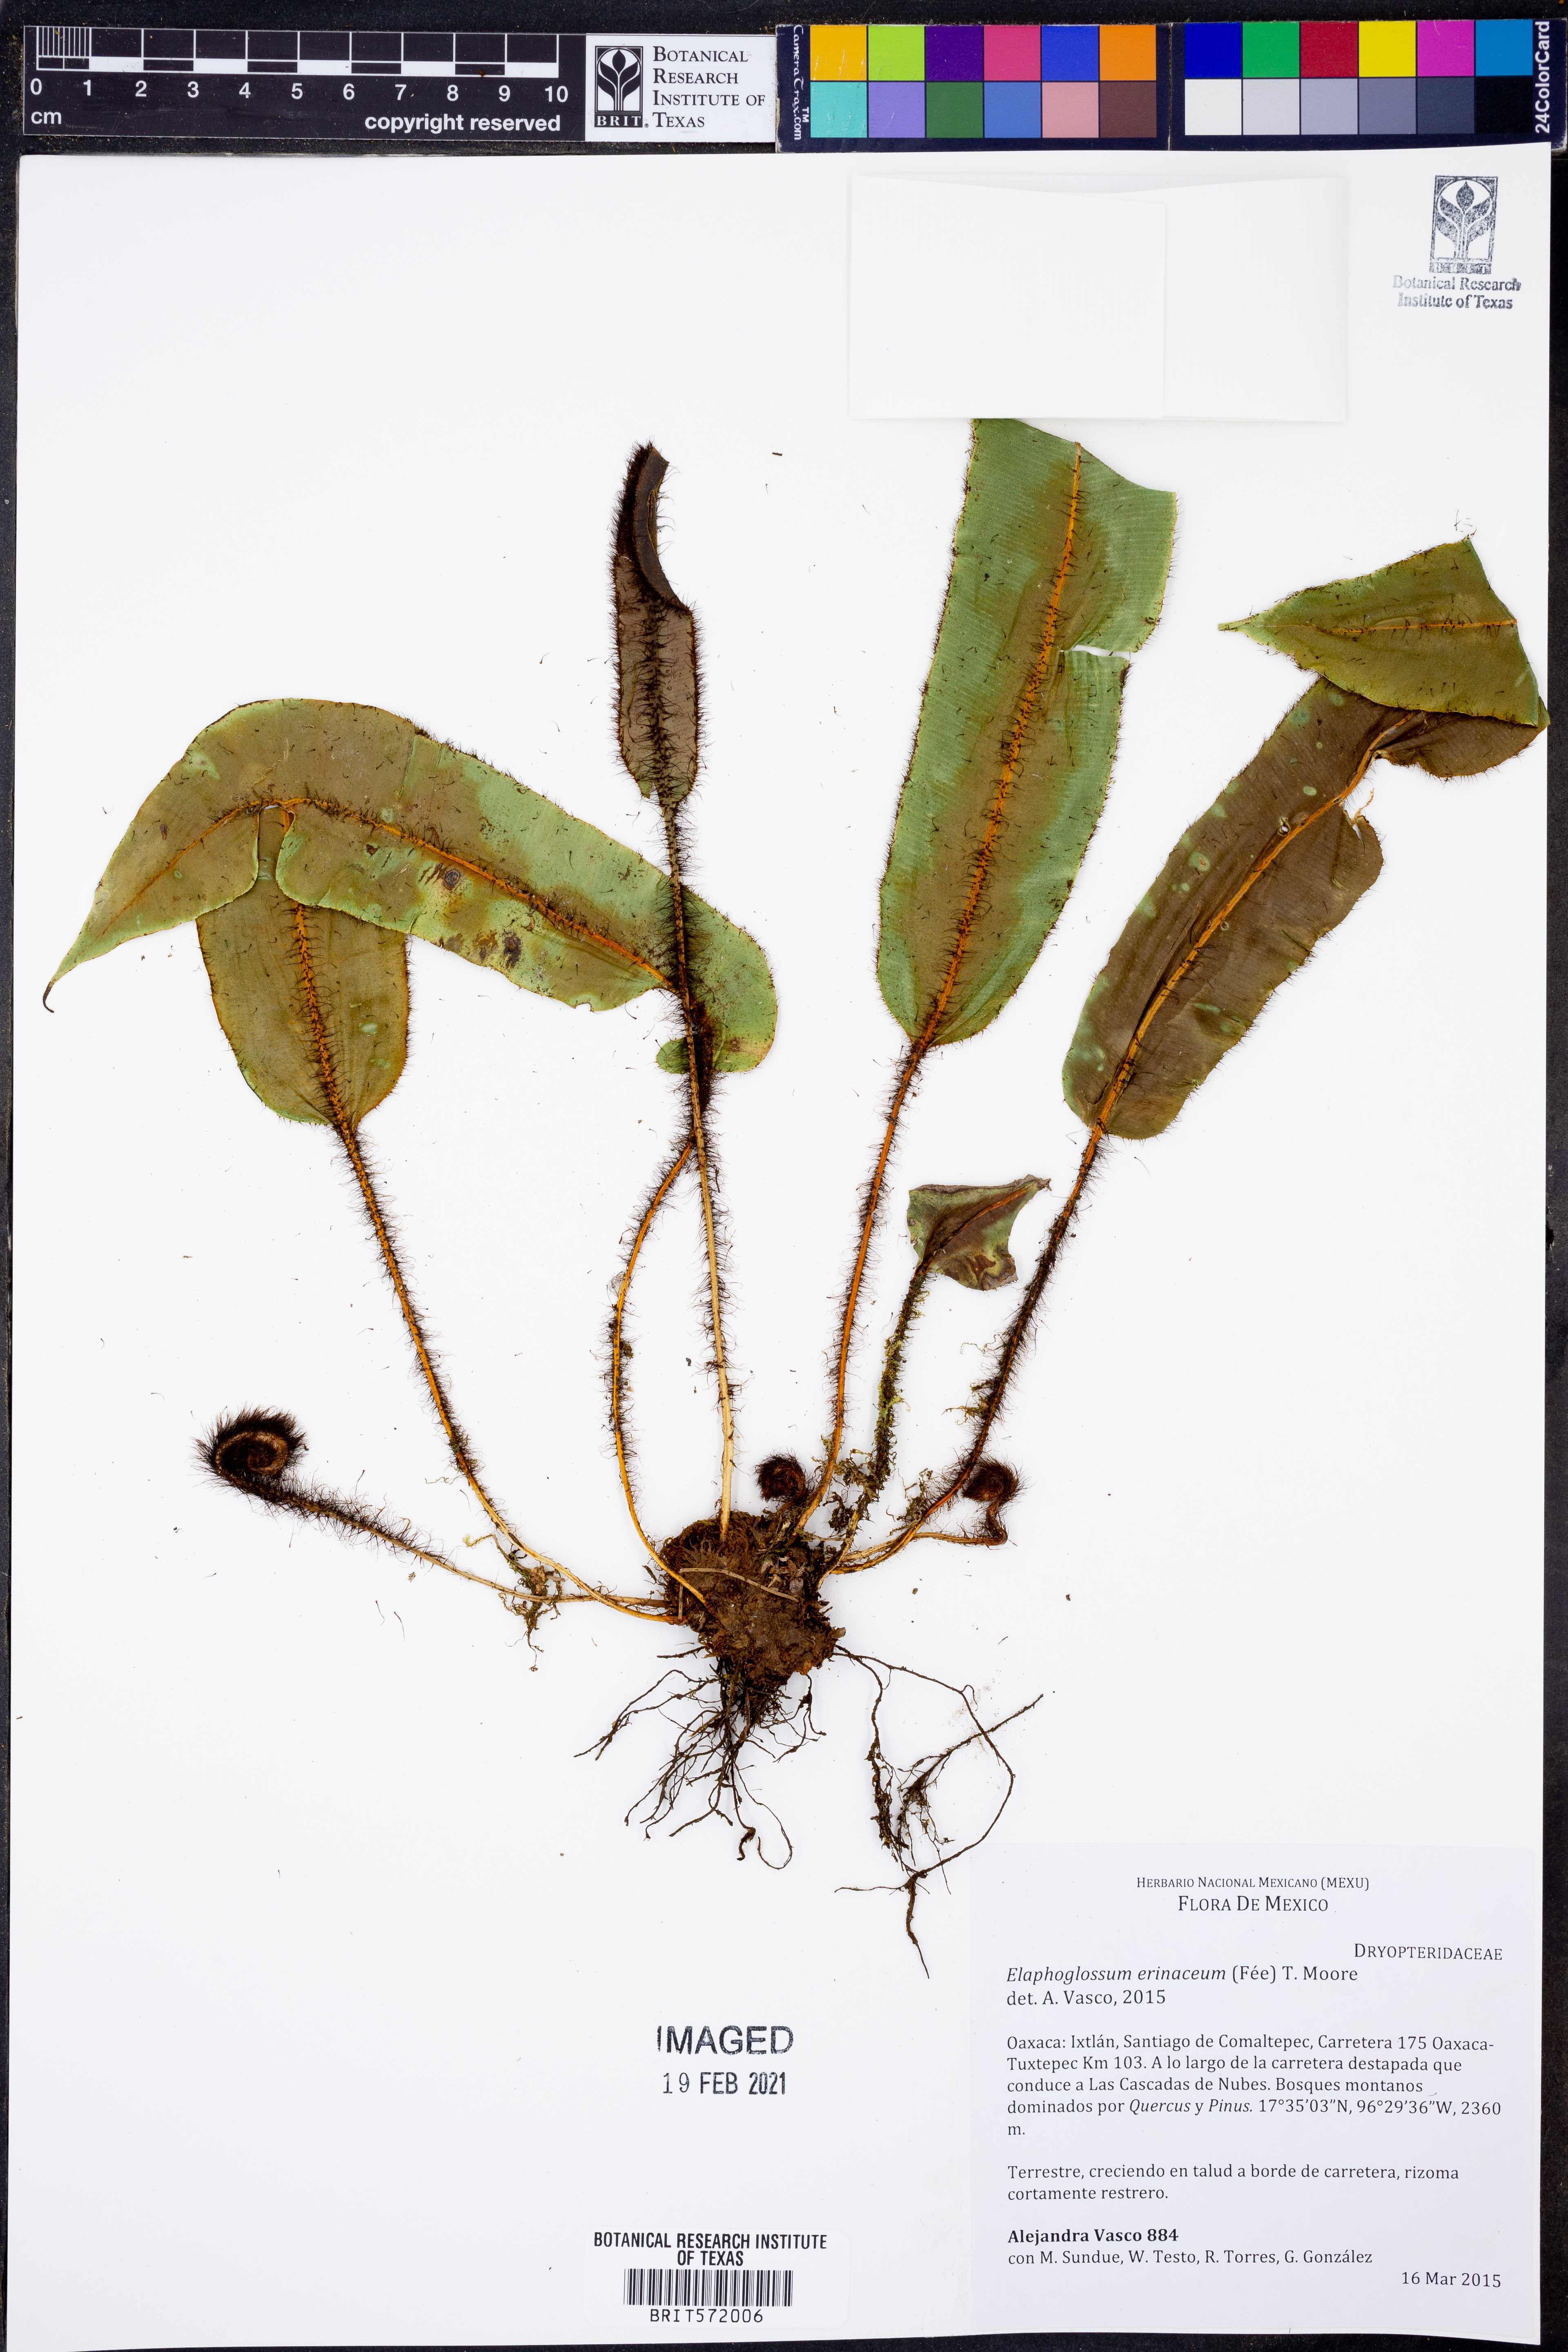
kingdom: Plantae
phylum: Tracheophyta
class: Polypodiopsida
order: Polypodiales
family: Dryopteridaceae
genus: Elaphoglossum
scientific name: Elaphoglossum erinaceum
